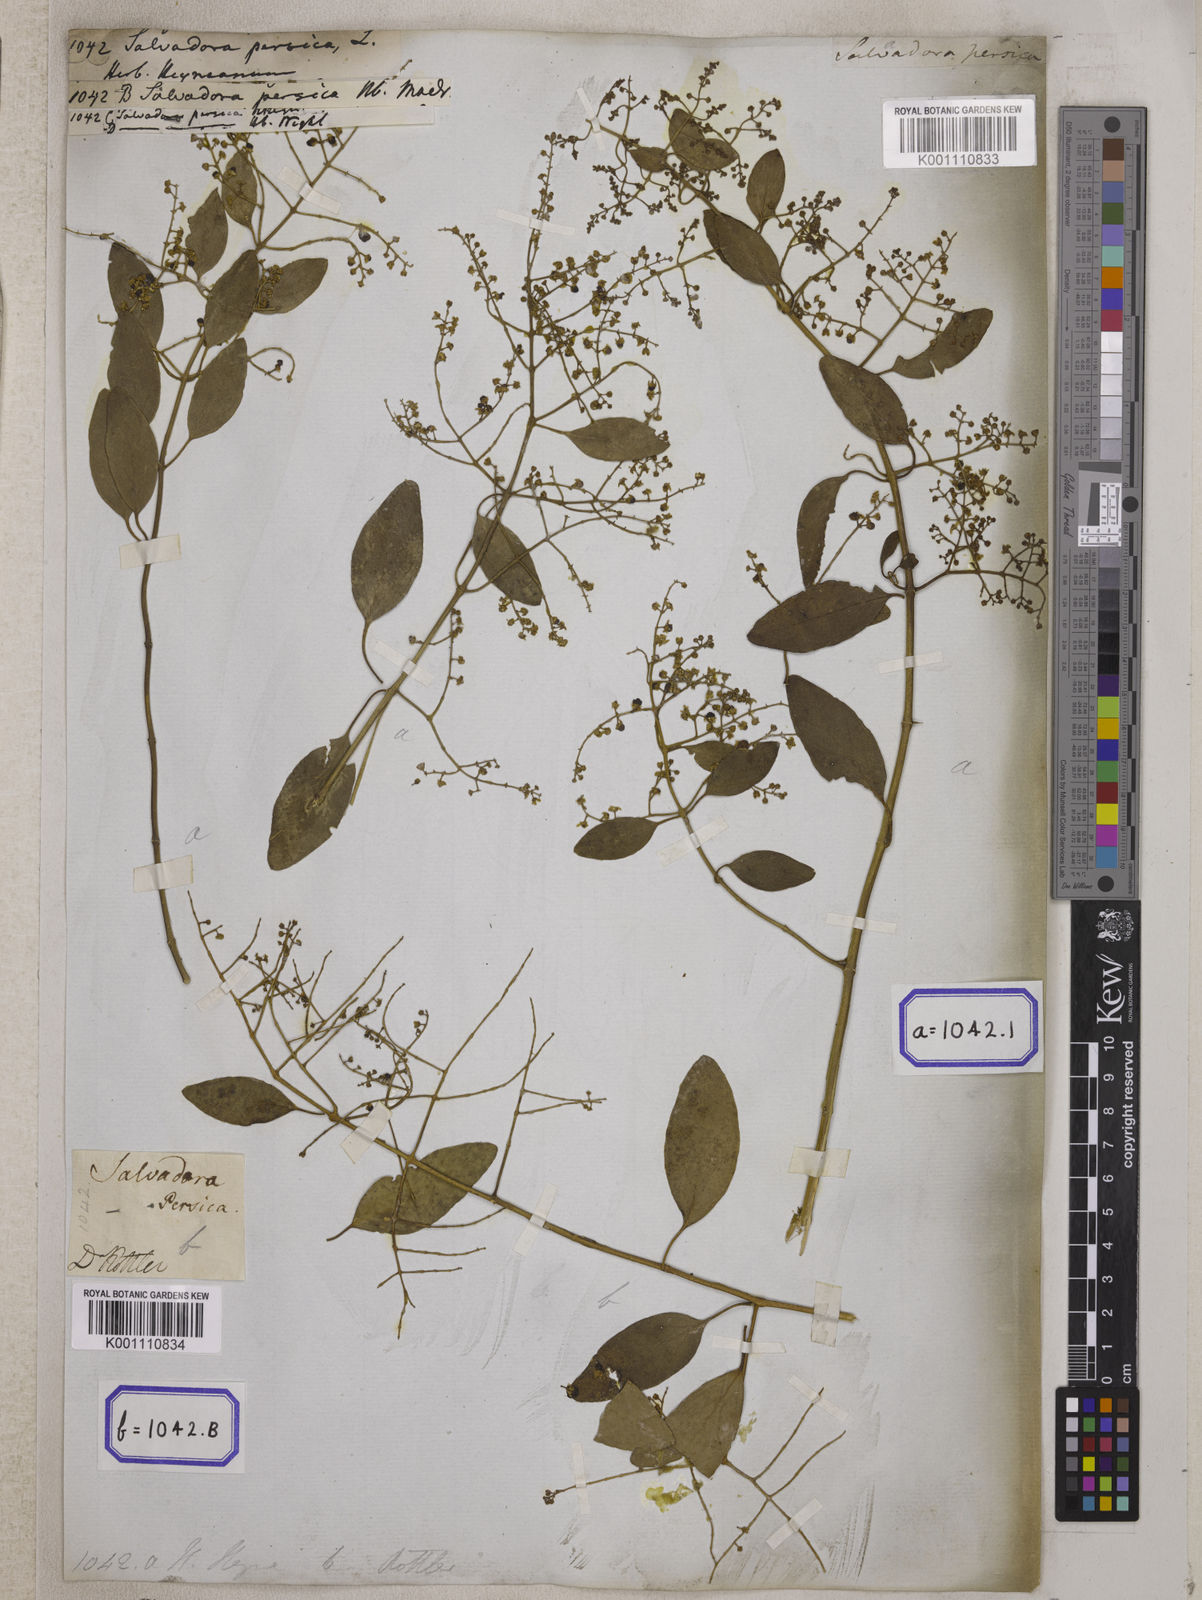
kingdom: Plantae
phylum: Tracheophyta
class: Magnoliopsida
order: Brassicales
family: Salvadoraceae
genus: Salvadora
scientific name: Salvadora persica
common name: Toothbrushtree
